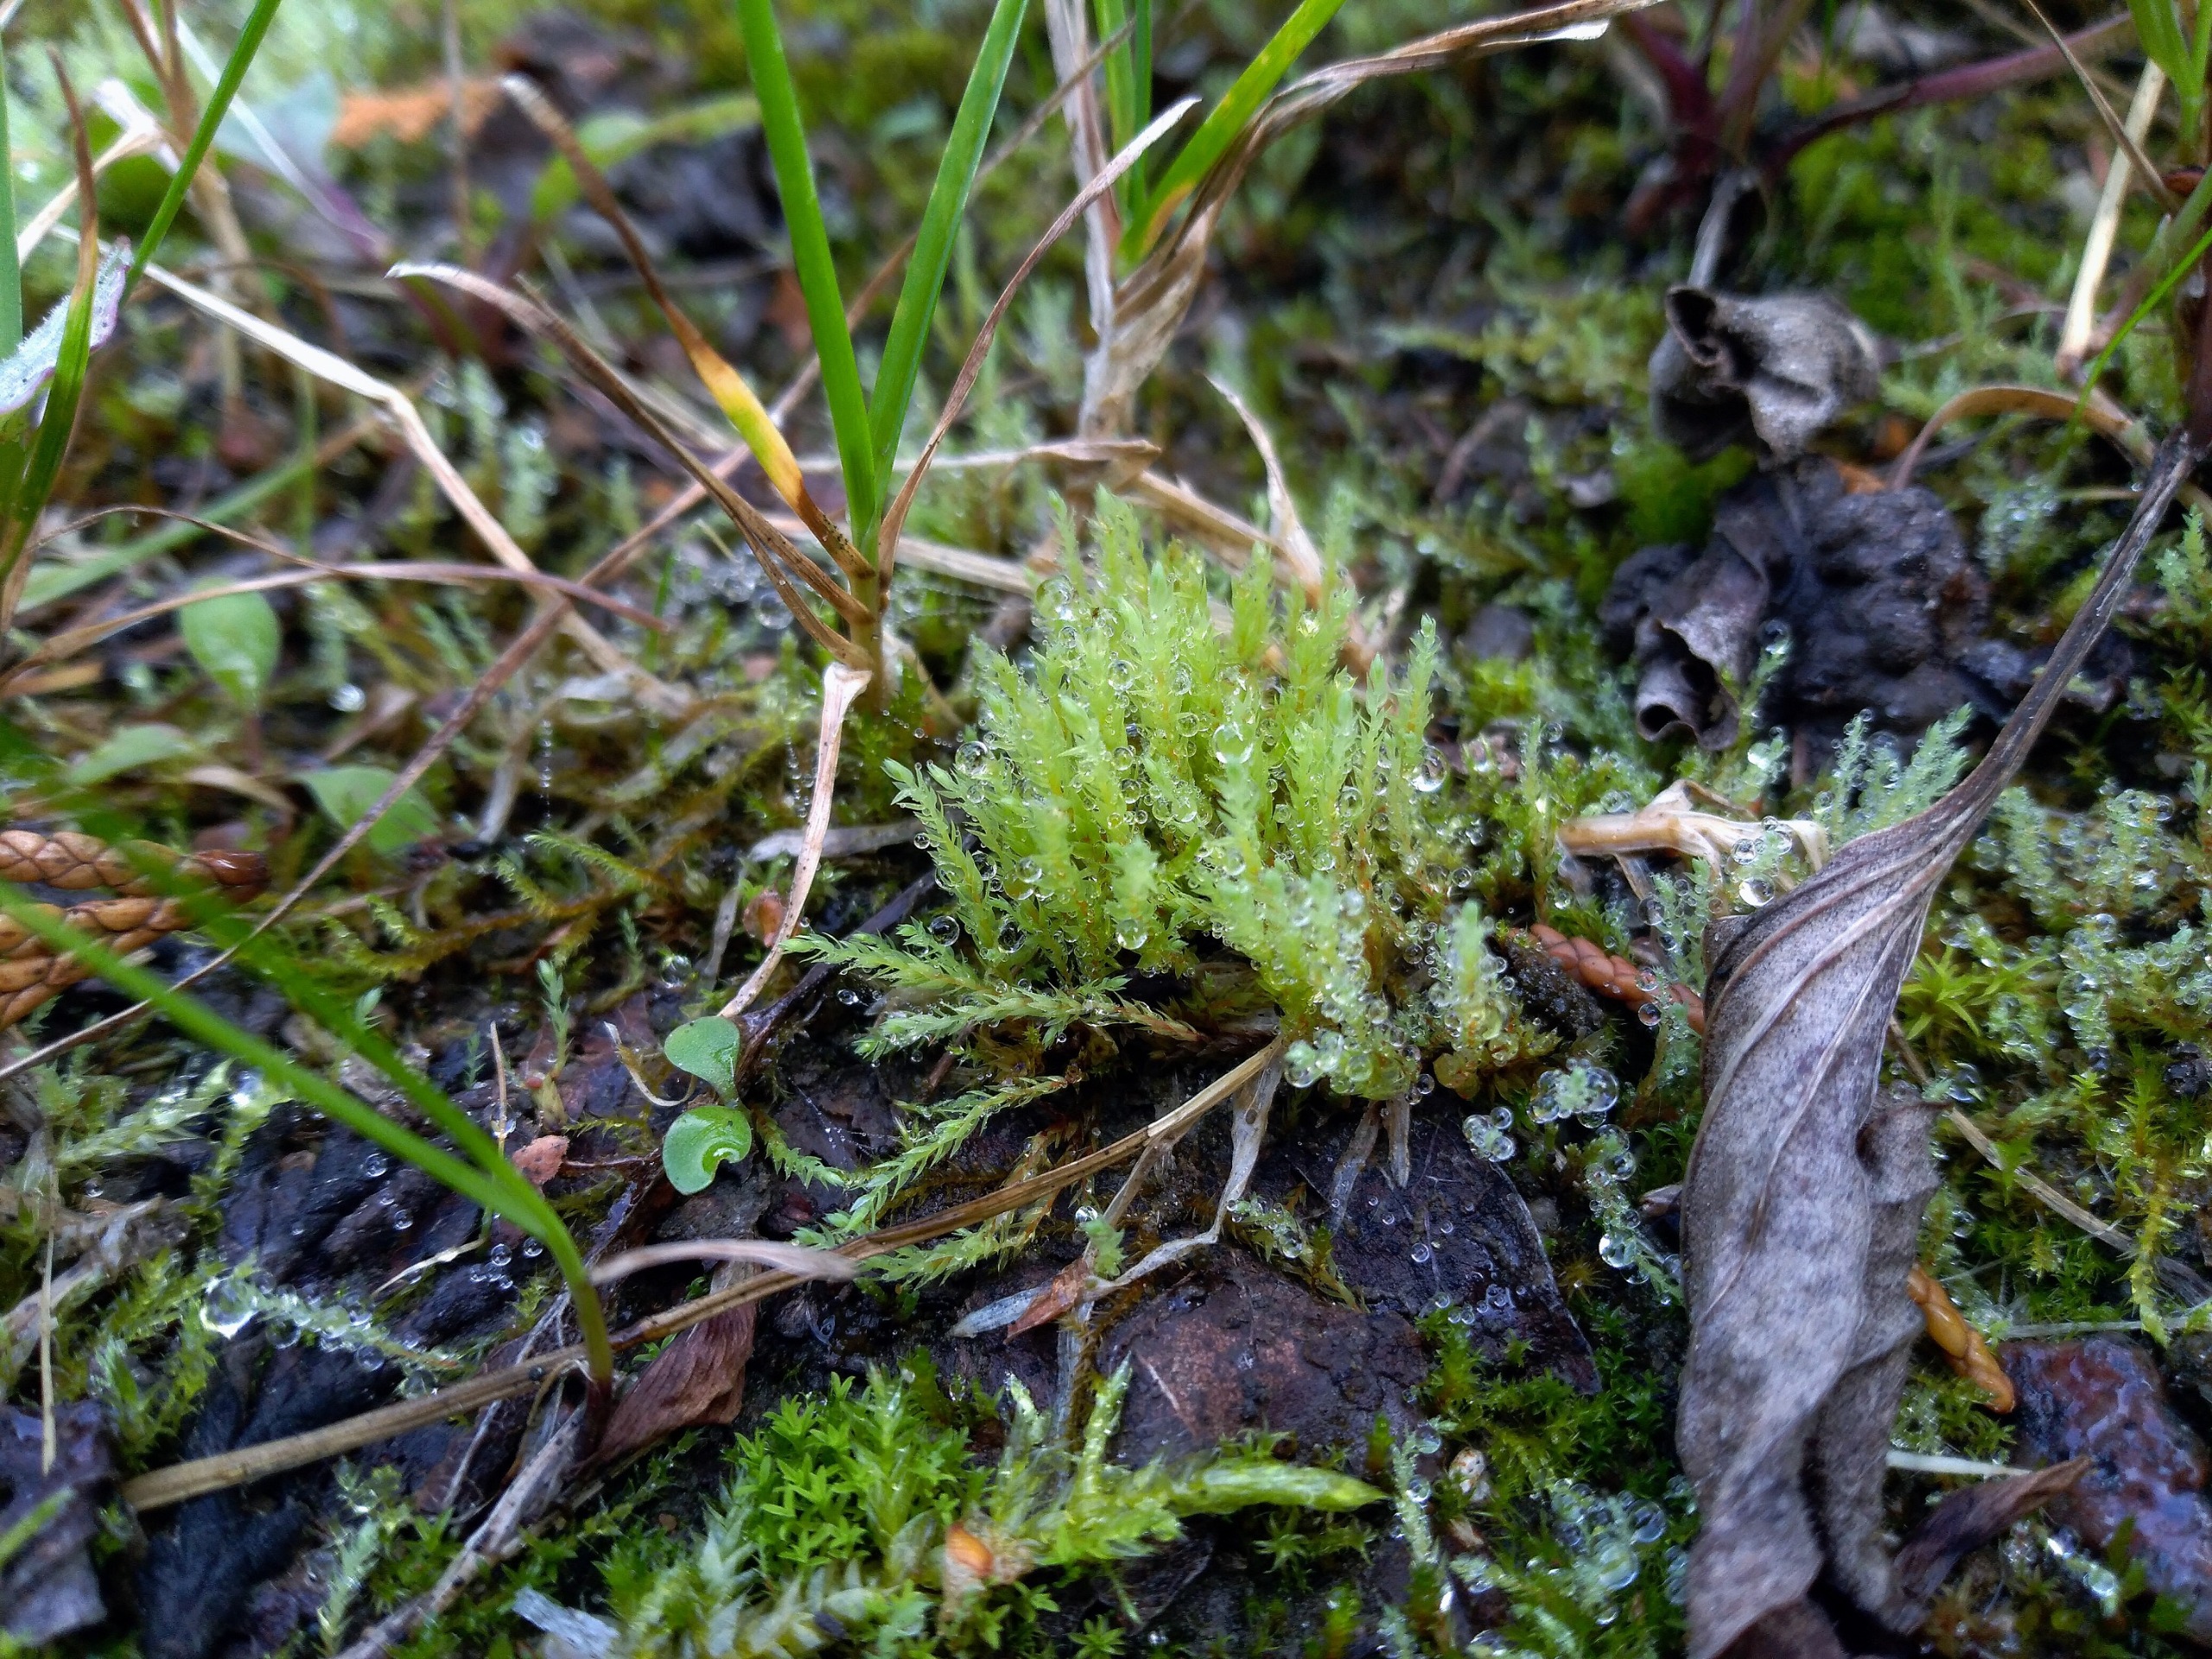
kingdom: Plantae
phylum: Bryophyta
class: Bryopsida
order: Bryales
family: Mniaceae
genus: Pohlia
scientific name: Pohlia wahlenbergii
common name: Lysegrøn voksmos
